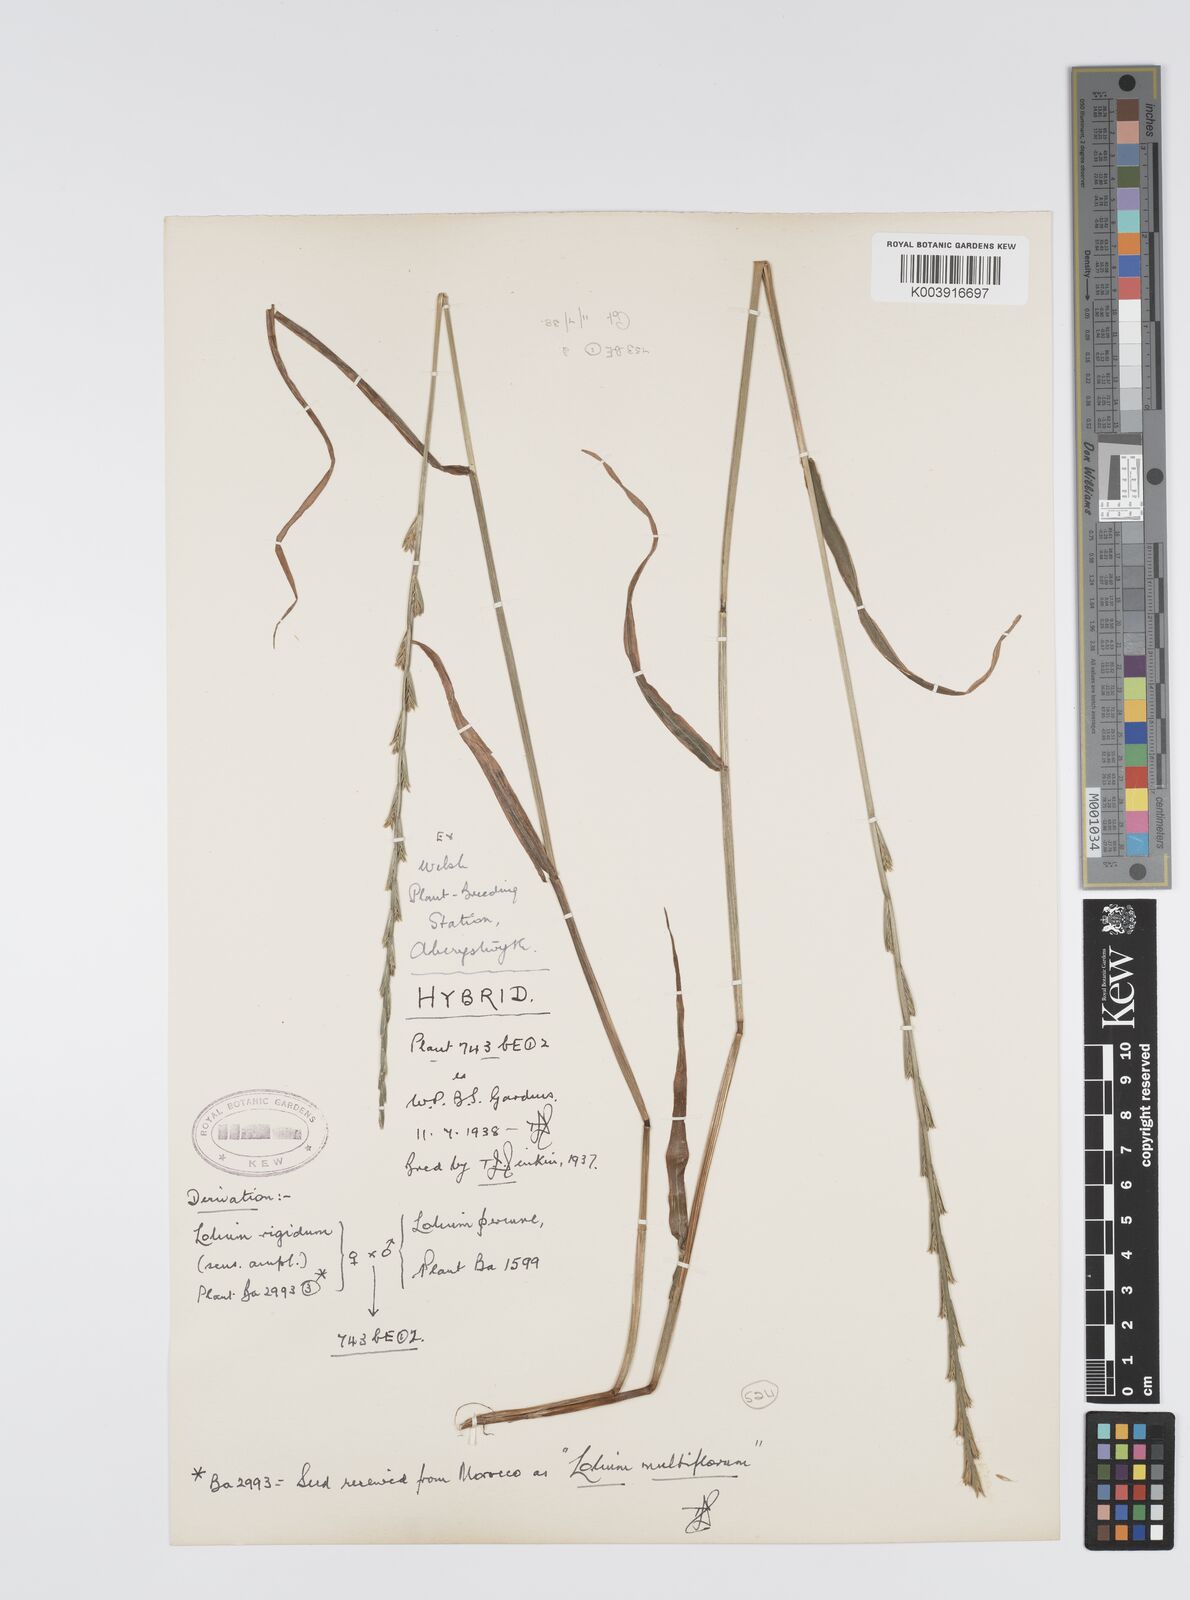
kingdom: Plantae
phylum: Tracheophyta
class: Liliopsida
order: Poales
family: Poaceae
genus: Lolium
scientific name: Lolium perenne
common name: Perennial ryegrass
